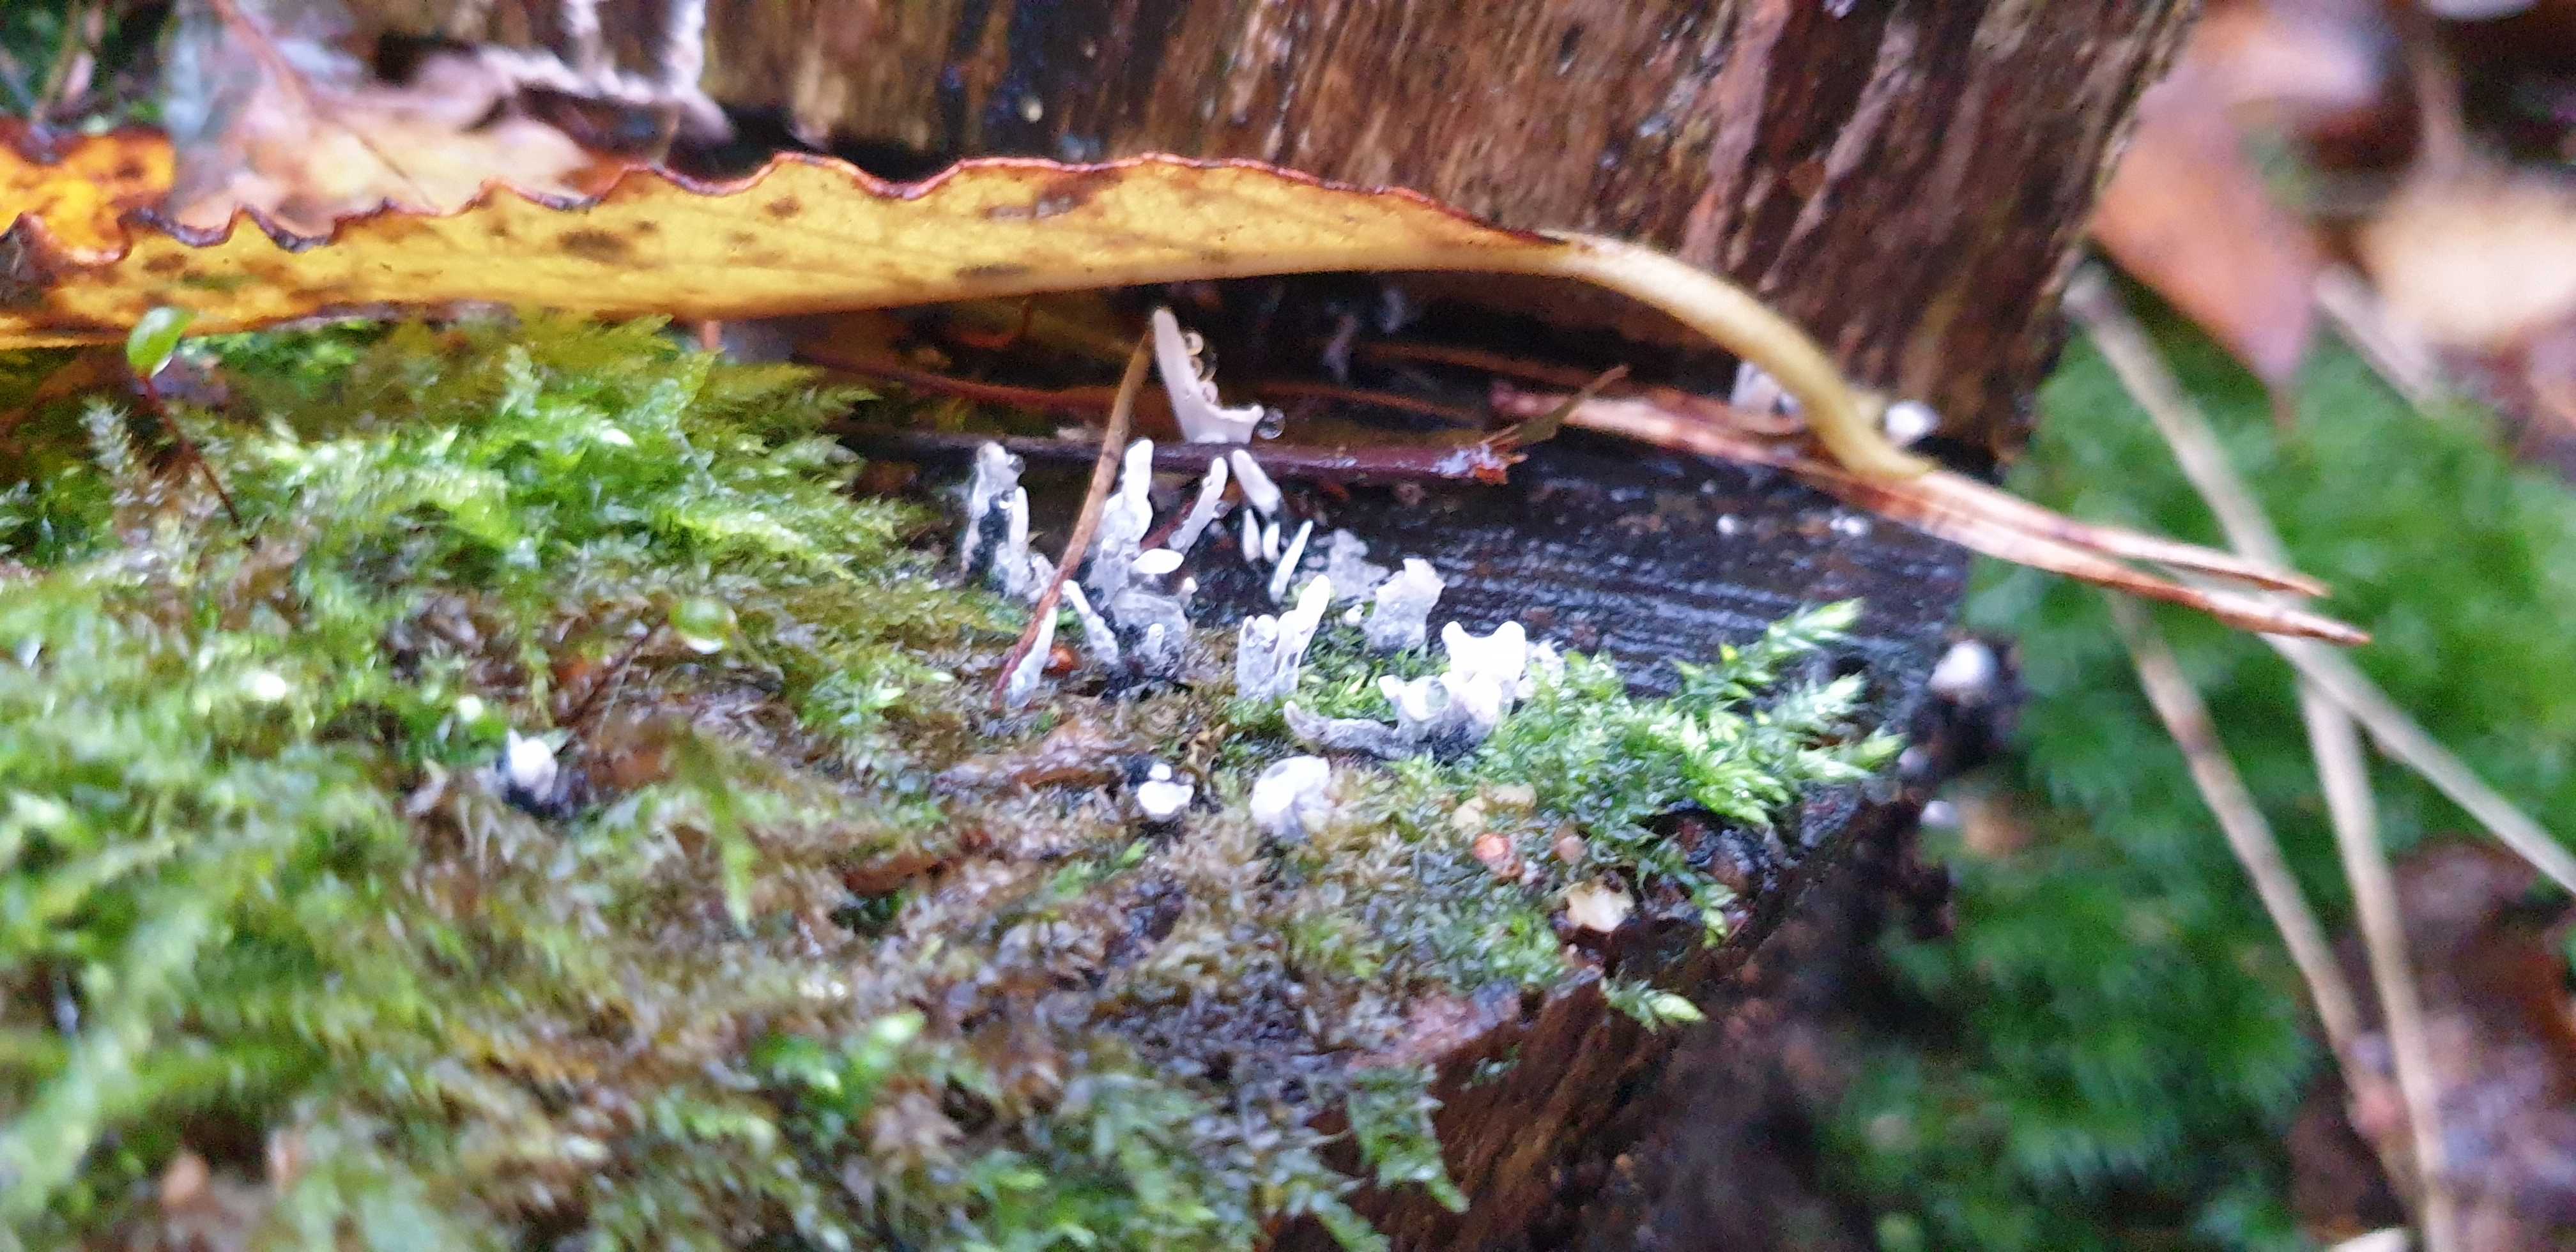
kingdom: Fungi
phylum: Ascomycota
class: Sordariomycetes
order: Xylariales
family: Xylariaceae
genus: Xylaria
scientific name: Xylaria hypoxylon
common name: grenet stødsvamp
